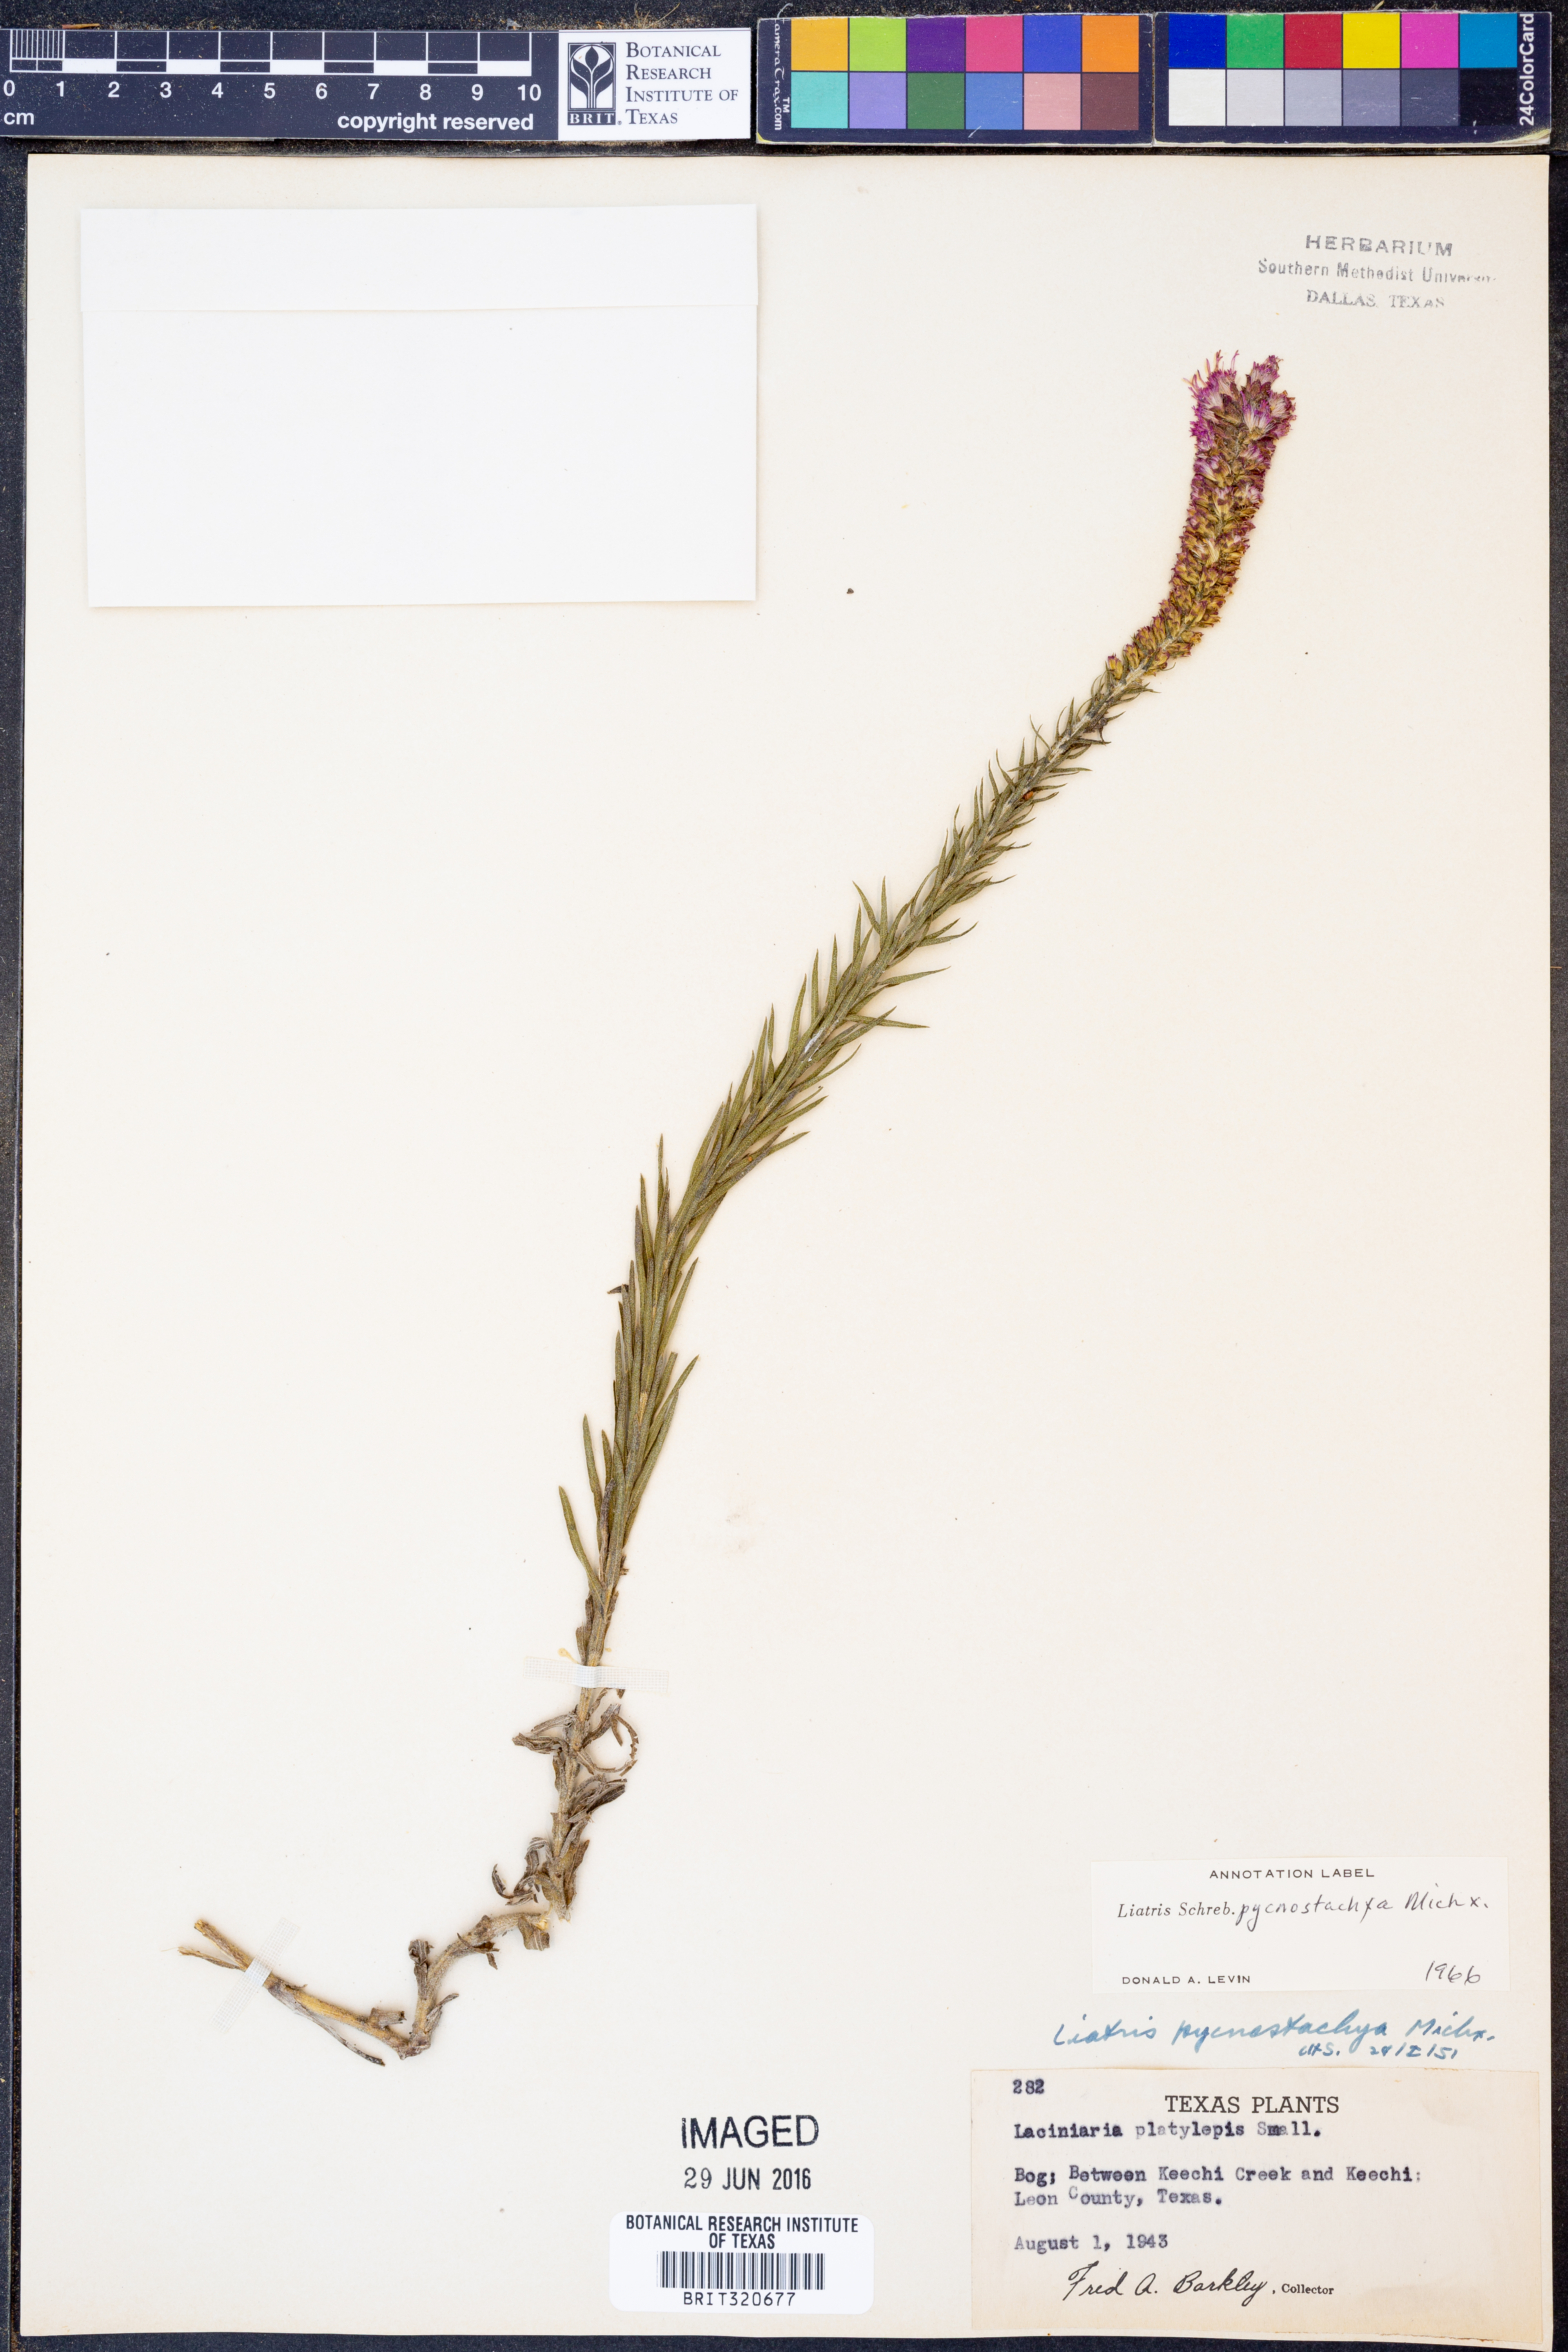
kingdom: Plantae
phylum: Tracheophyta
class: Magnoliopsida
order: Asterales
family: Asteraceae
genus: Liatris
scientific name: Liatris pycnostachya
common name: Cattail gayfeather
